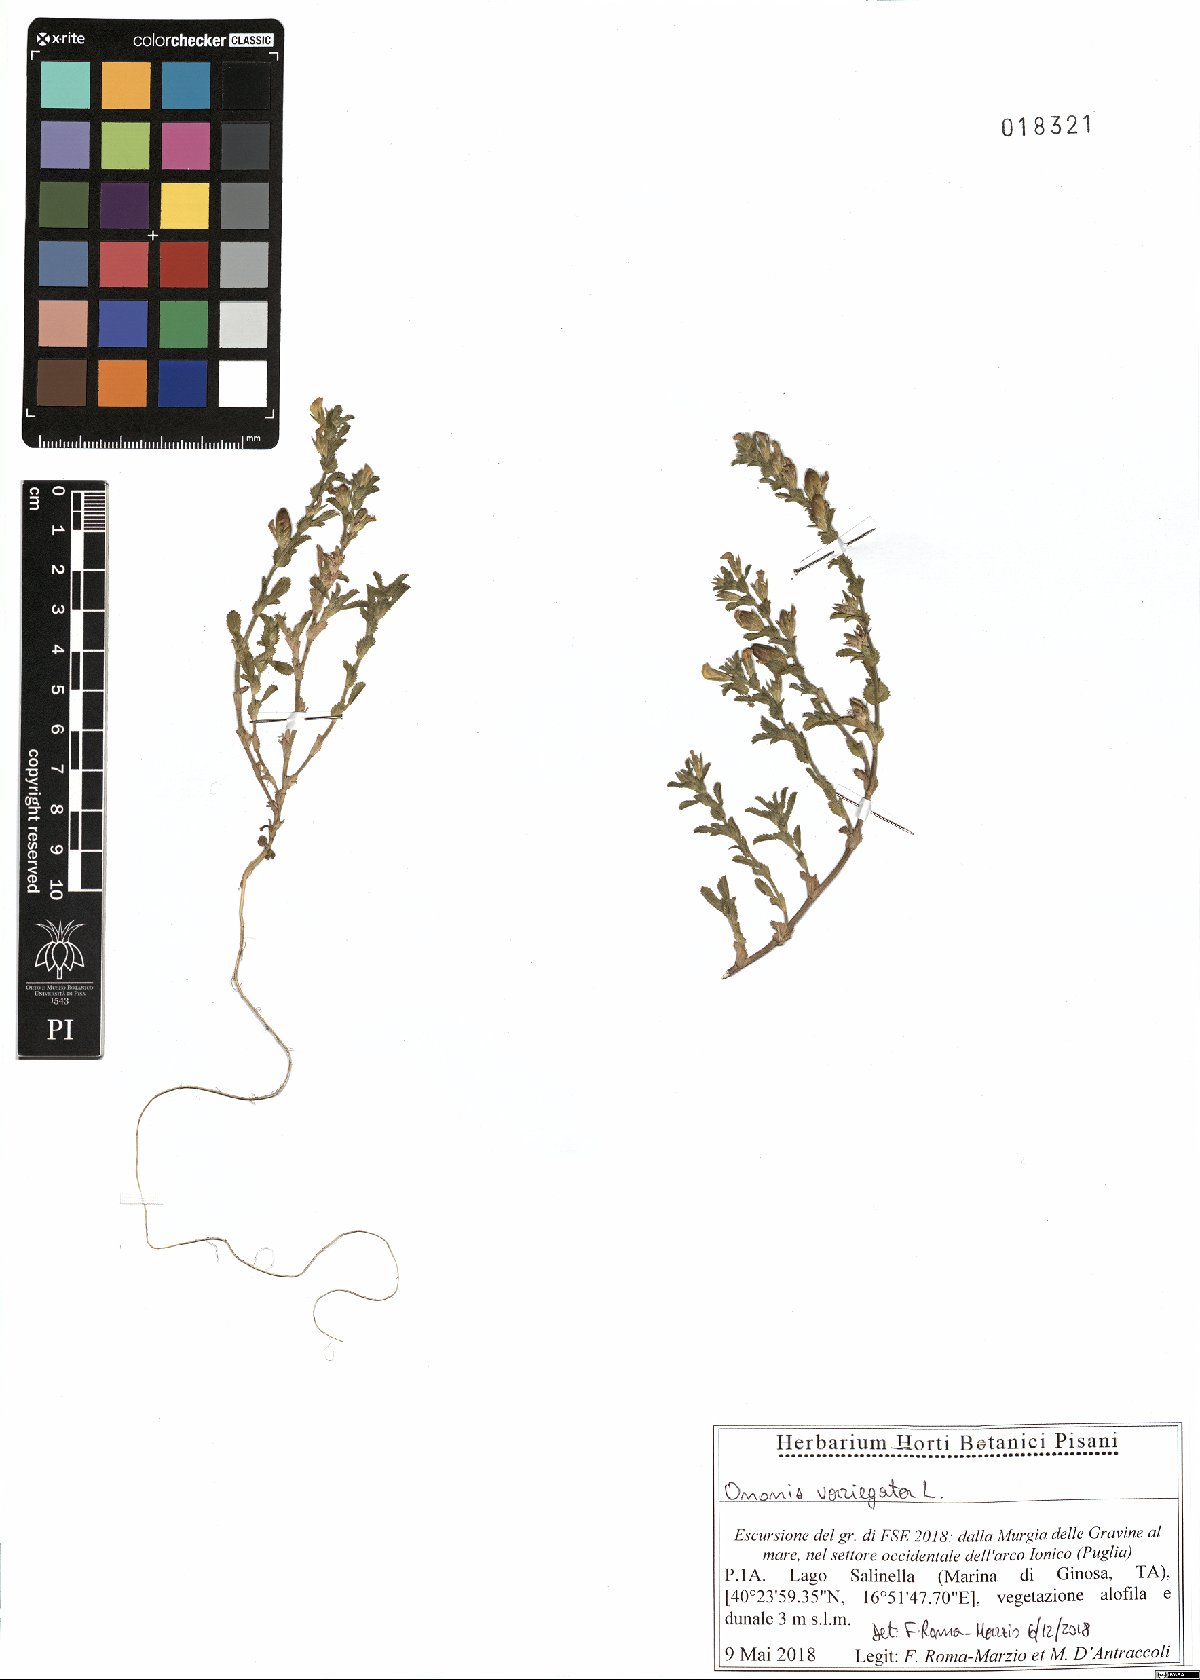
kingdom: Plantae
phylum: Tracheophyta
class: Magnoliopsida
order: Fabales
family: Fabaceae
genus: Ononis
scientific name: Ononis variegata
